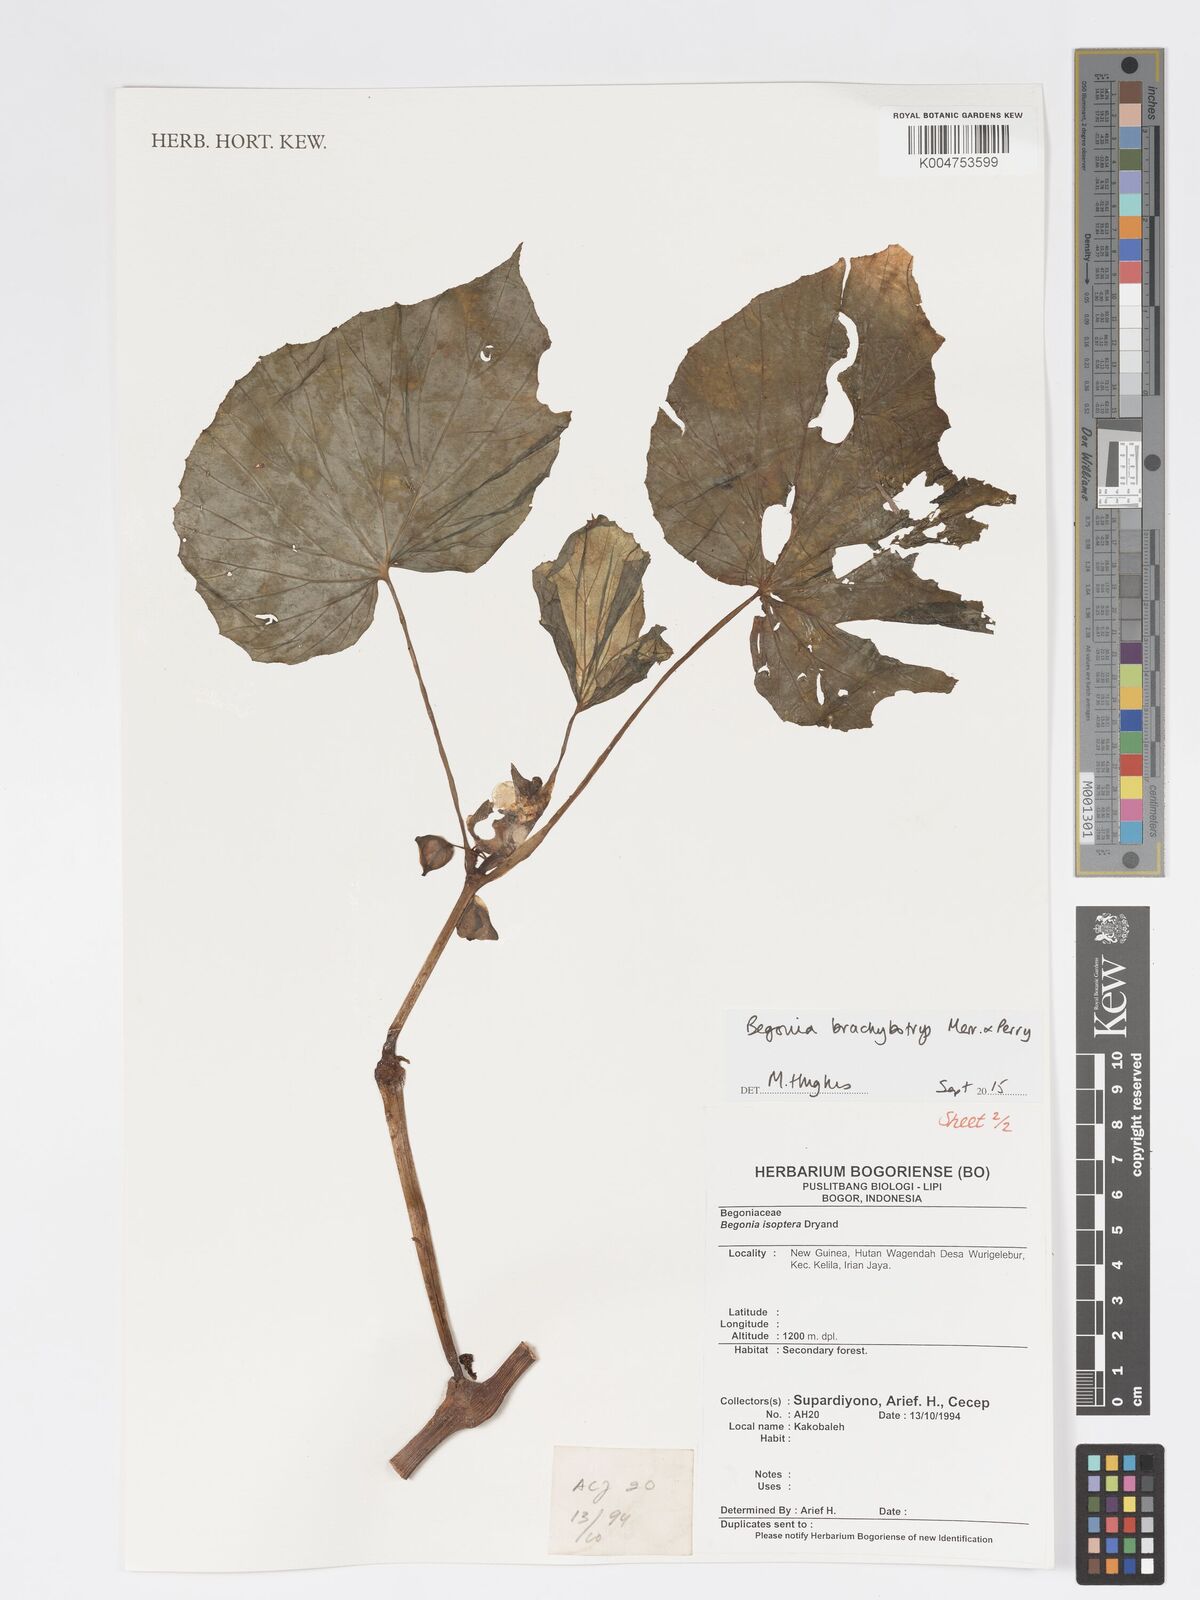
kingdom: Plantae
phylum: Tracheophyta
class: Magnoliopsida
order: Cucurbitales
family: Begoniaceae
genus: Begonia
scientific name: Begonia brachybotrys
